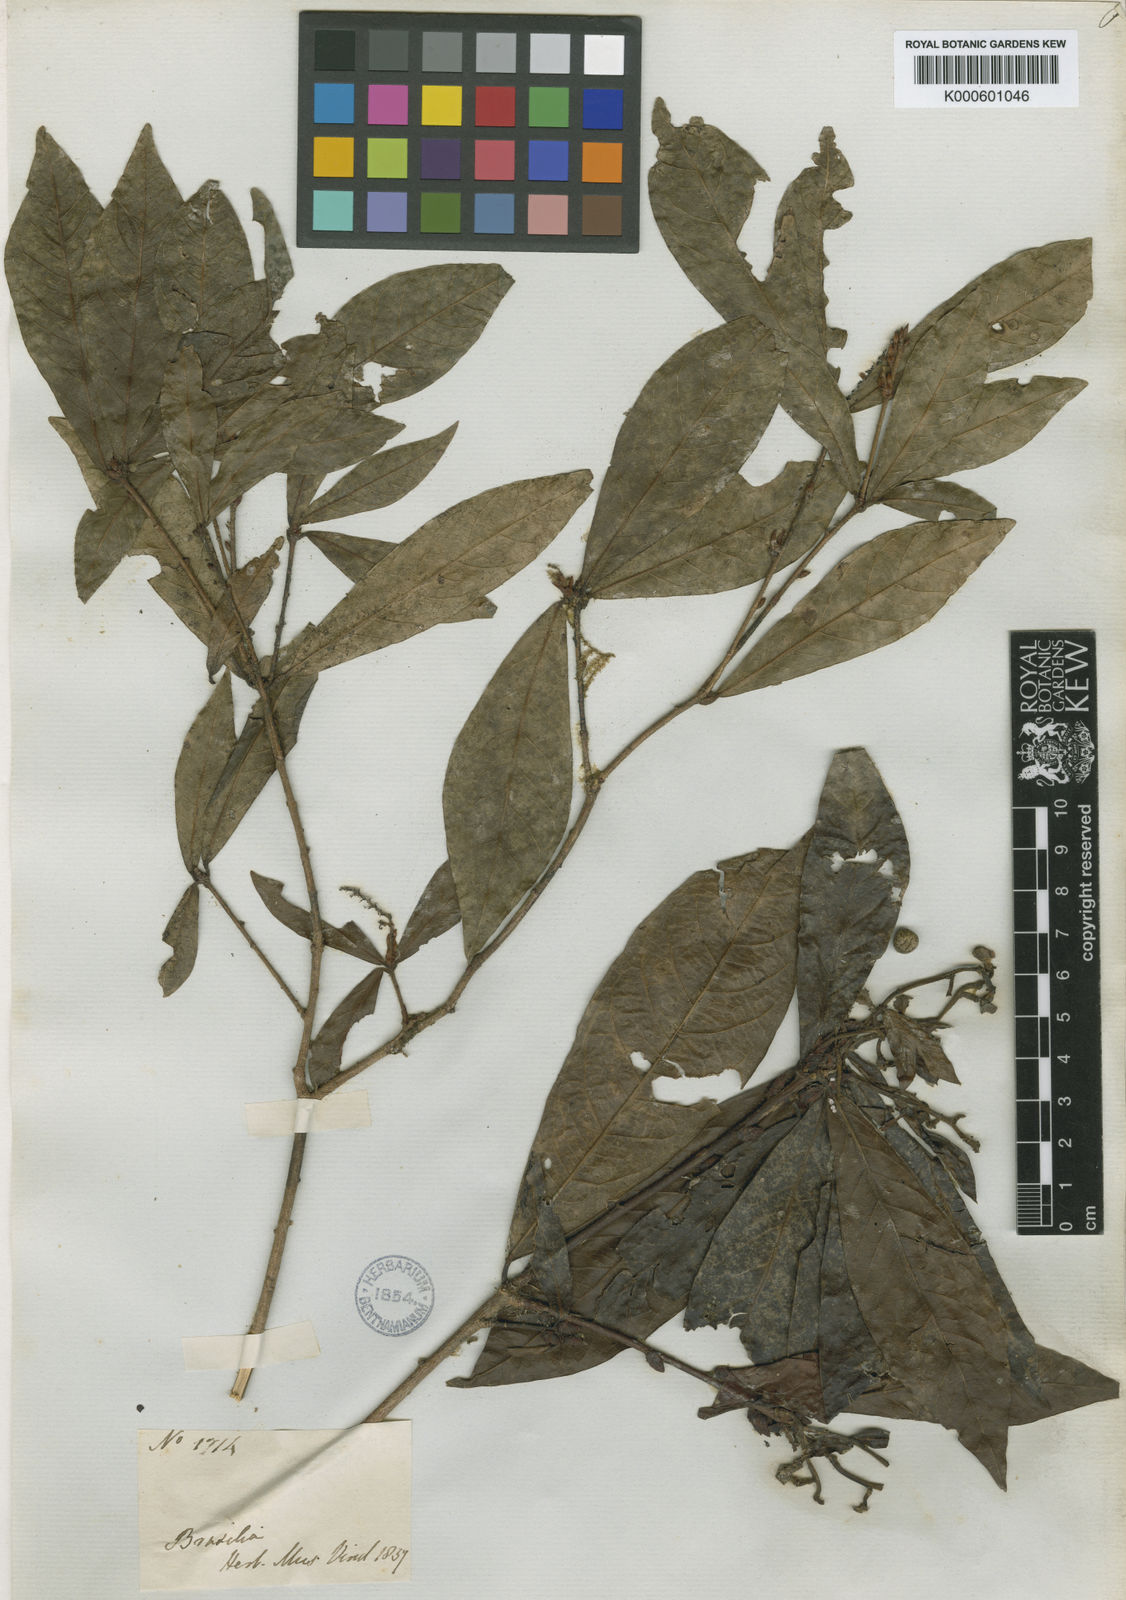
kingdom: Plantae
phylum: Tracheophyta
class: Magnoliopsida
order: Malpighiales
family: Euphorbiaceae
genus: Actinostemon
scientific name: Actinostemon
